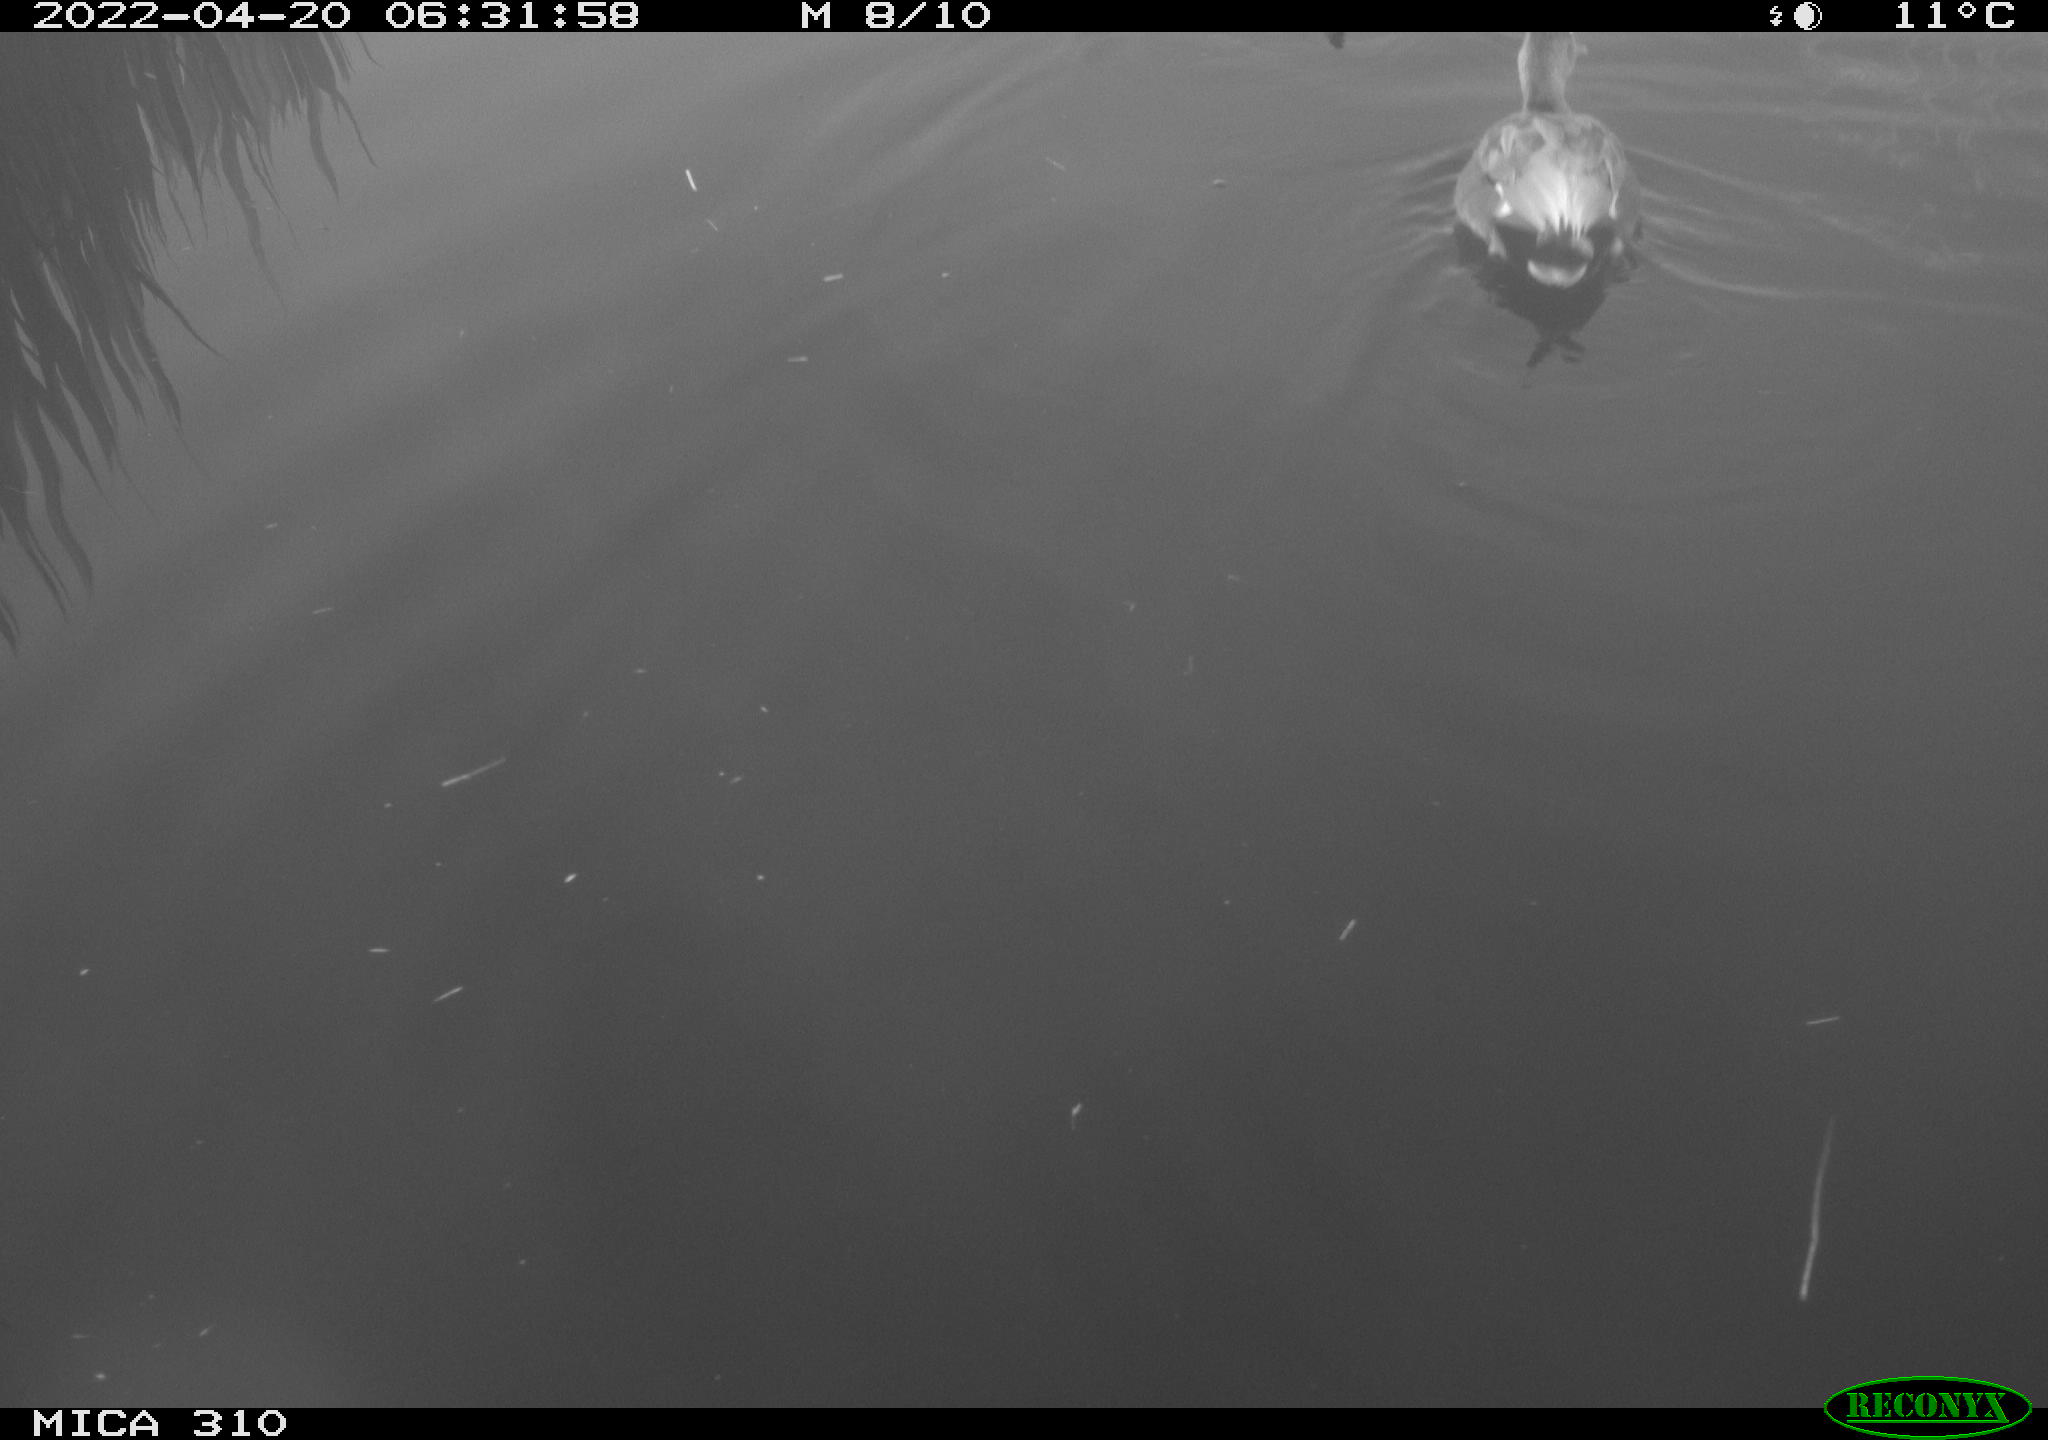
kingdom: Animalia
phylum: Chordata
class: Aves
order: Anseriformes
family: Anatidae
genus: Mareca
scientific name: Mareca strepera
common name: Gadwall
